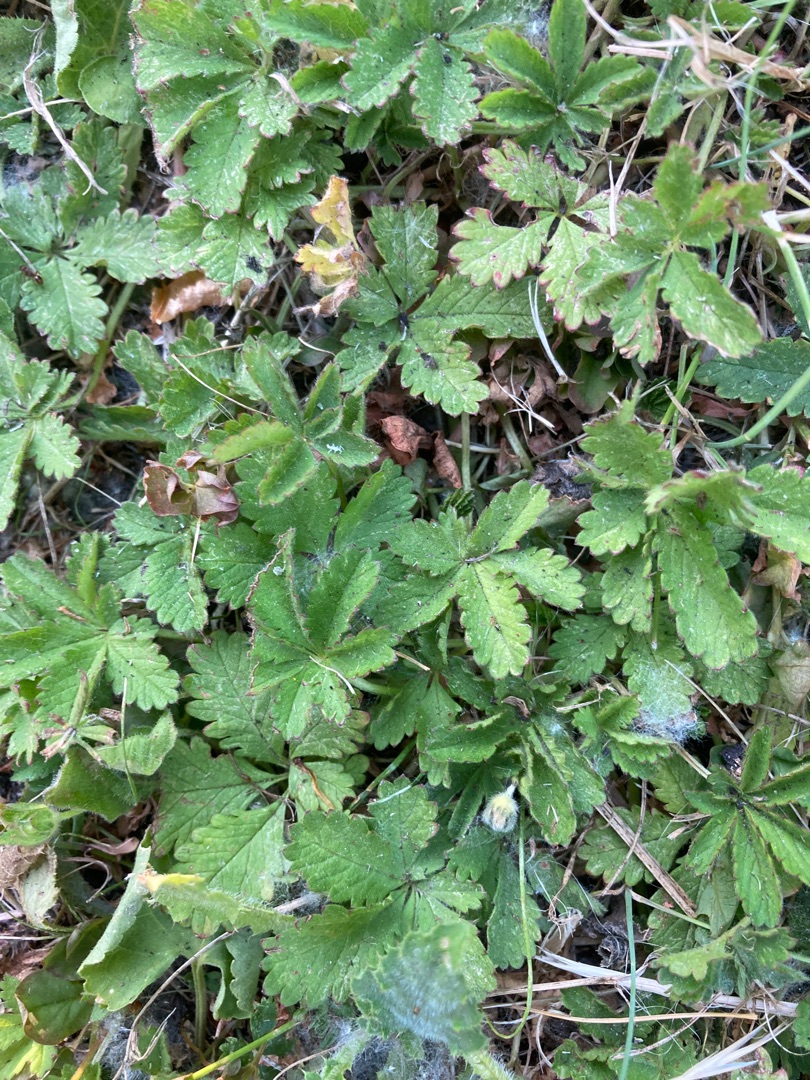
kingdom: Plantae
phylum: Tracheophyta
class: Magnoliopsida
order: Rosales
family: Rosaceae
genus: Potentilla
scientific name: Potentilla reptans
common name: Krybende potentil
